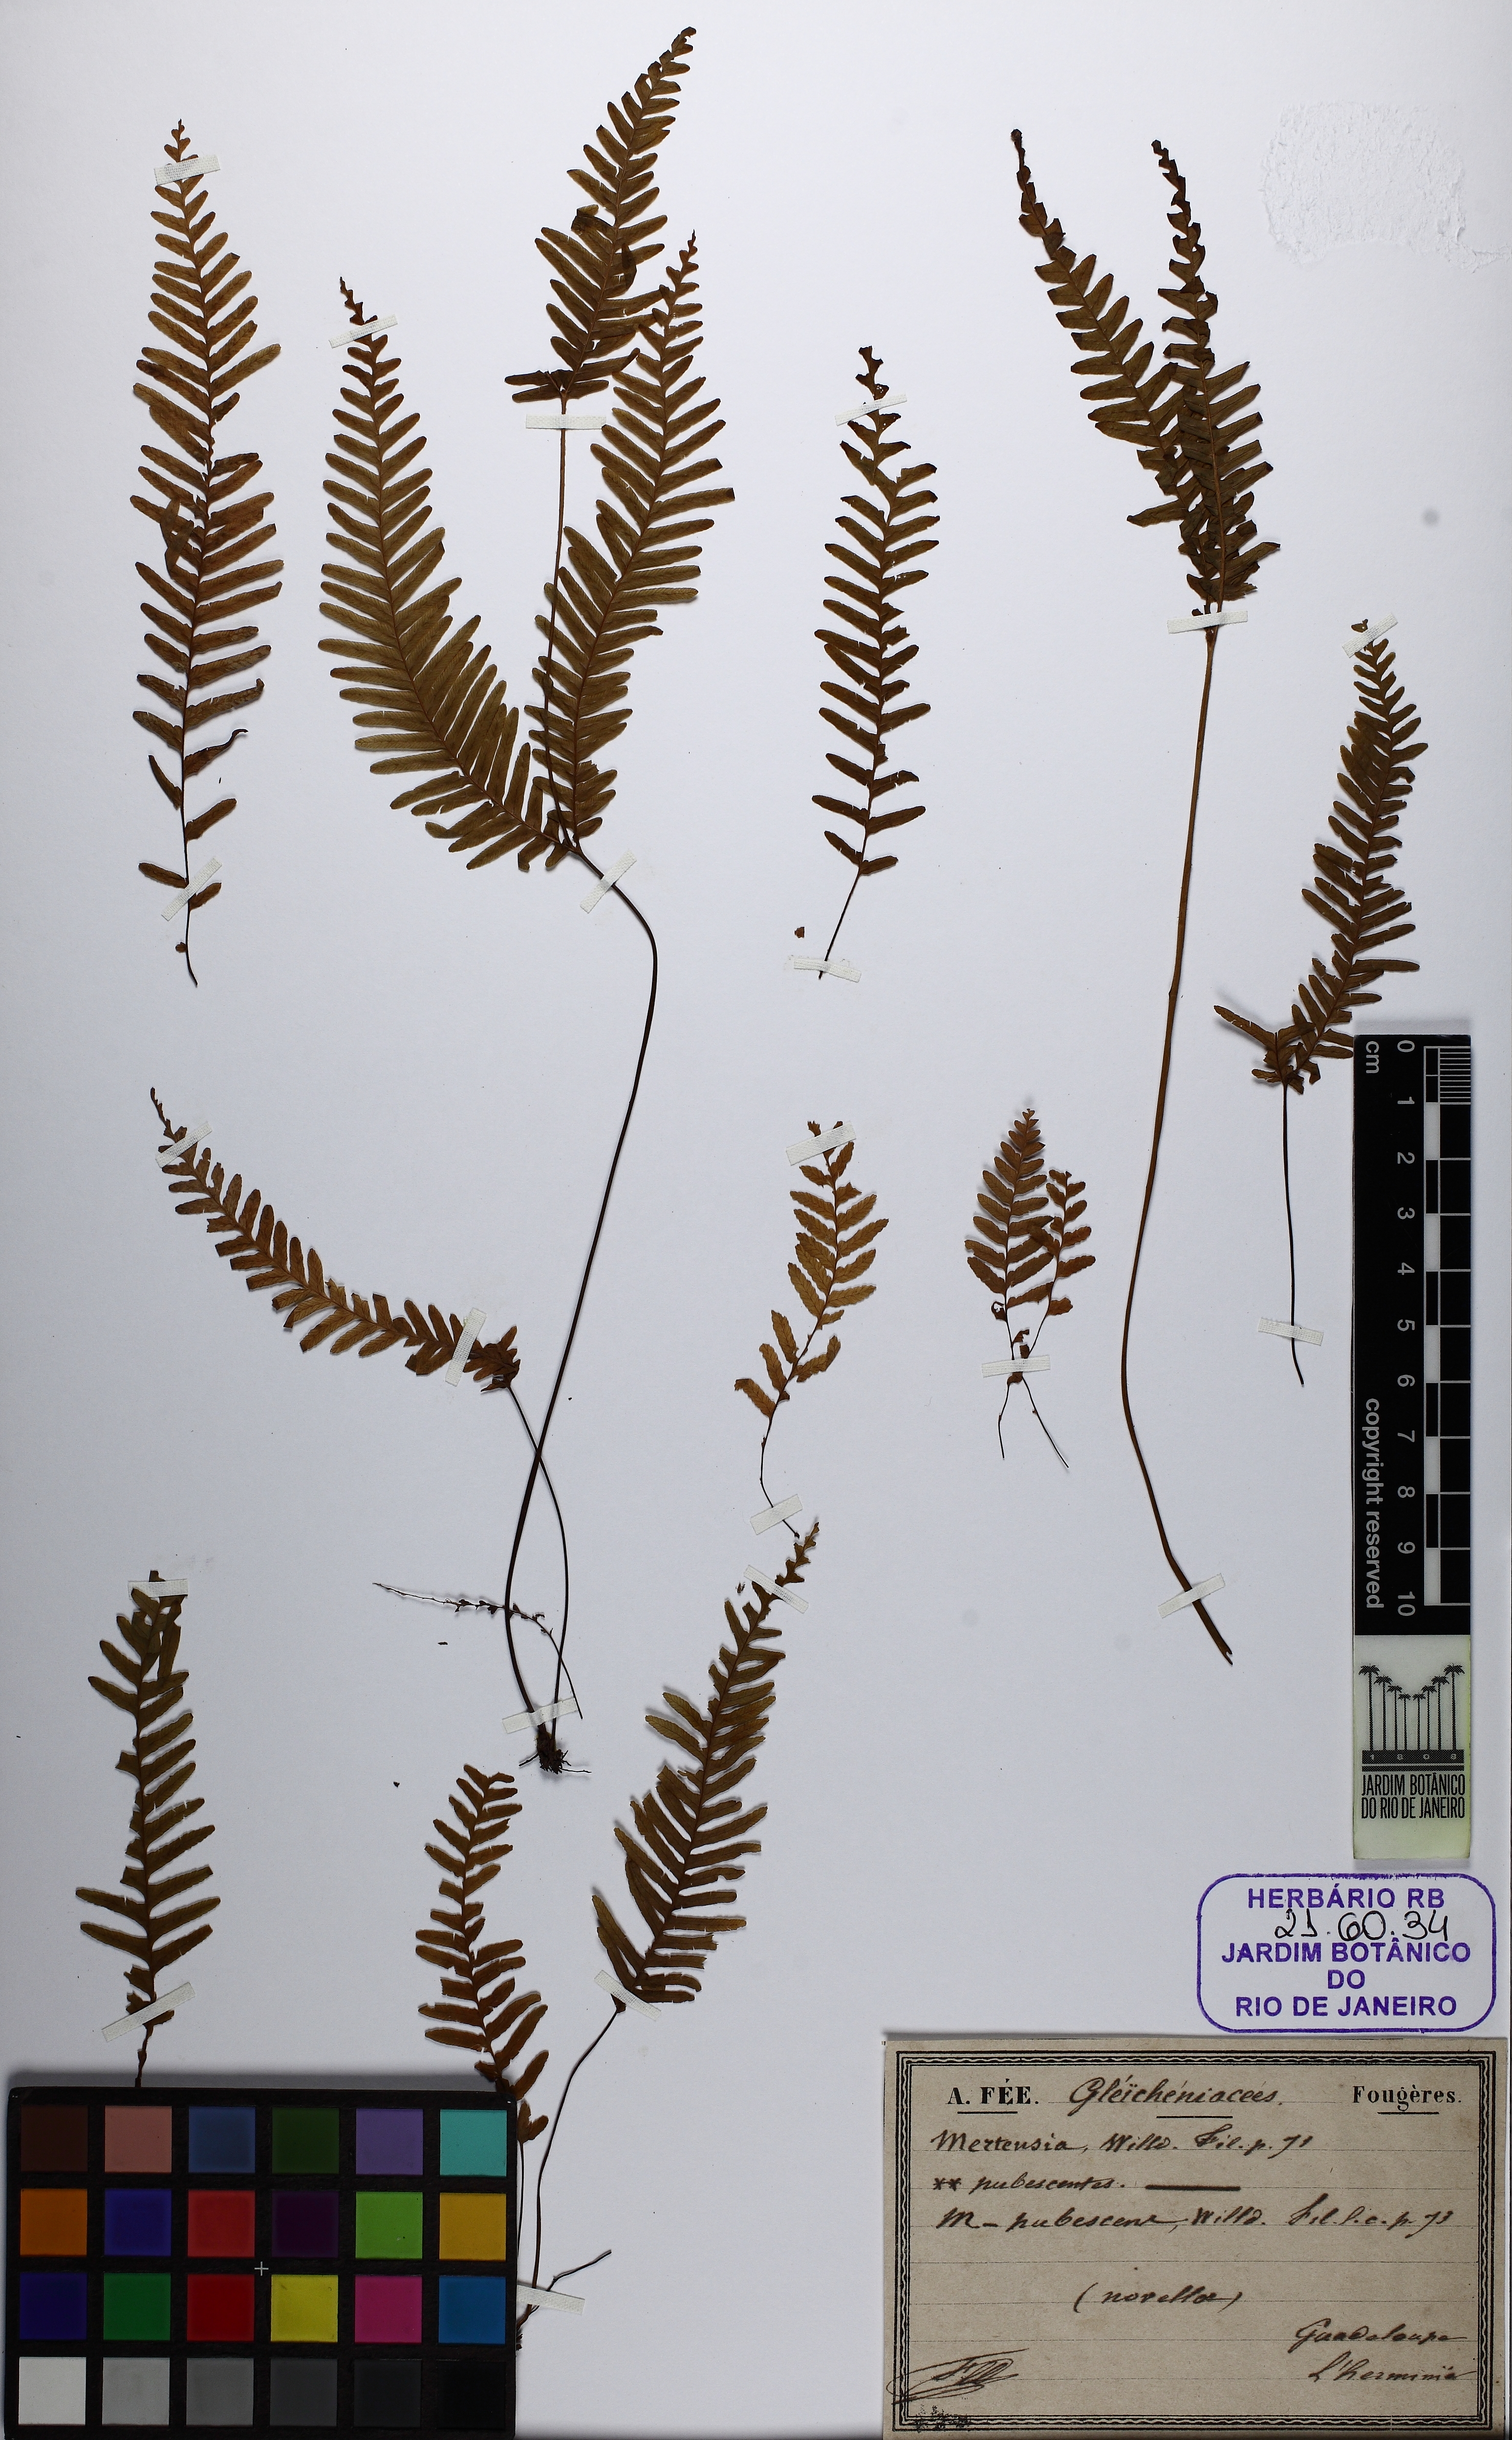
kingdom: Plantae
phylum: Tracheophyta
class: Polypodiopsida
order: Gleicheniales
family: Gleicheniaceae
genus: Sticherus
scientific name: Sticherus bifidus
